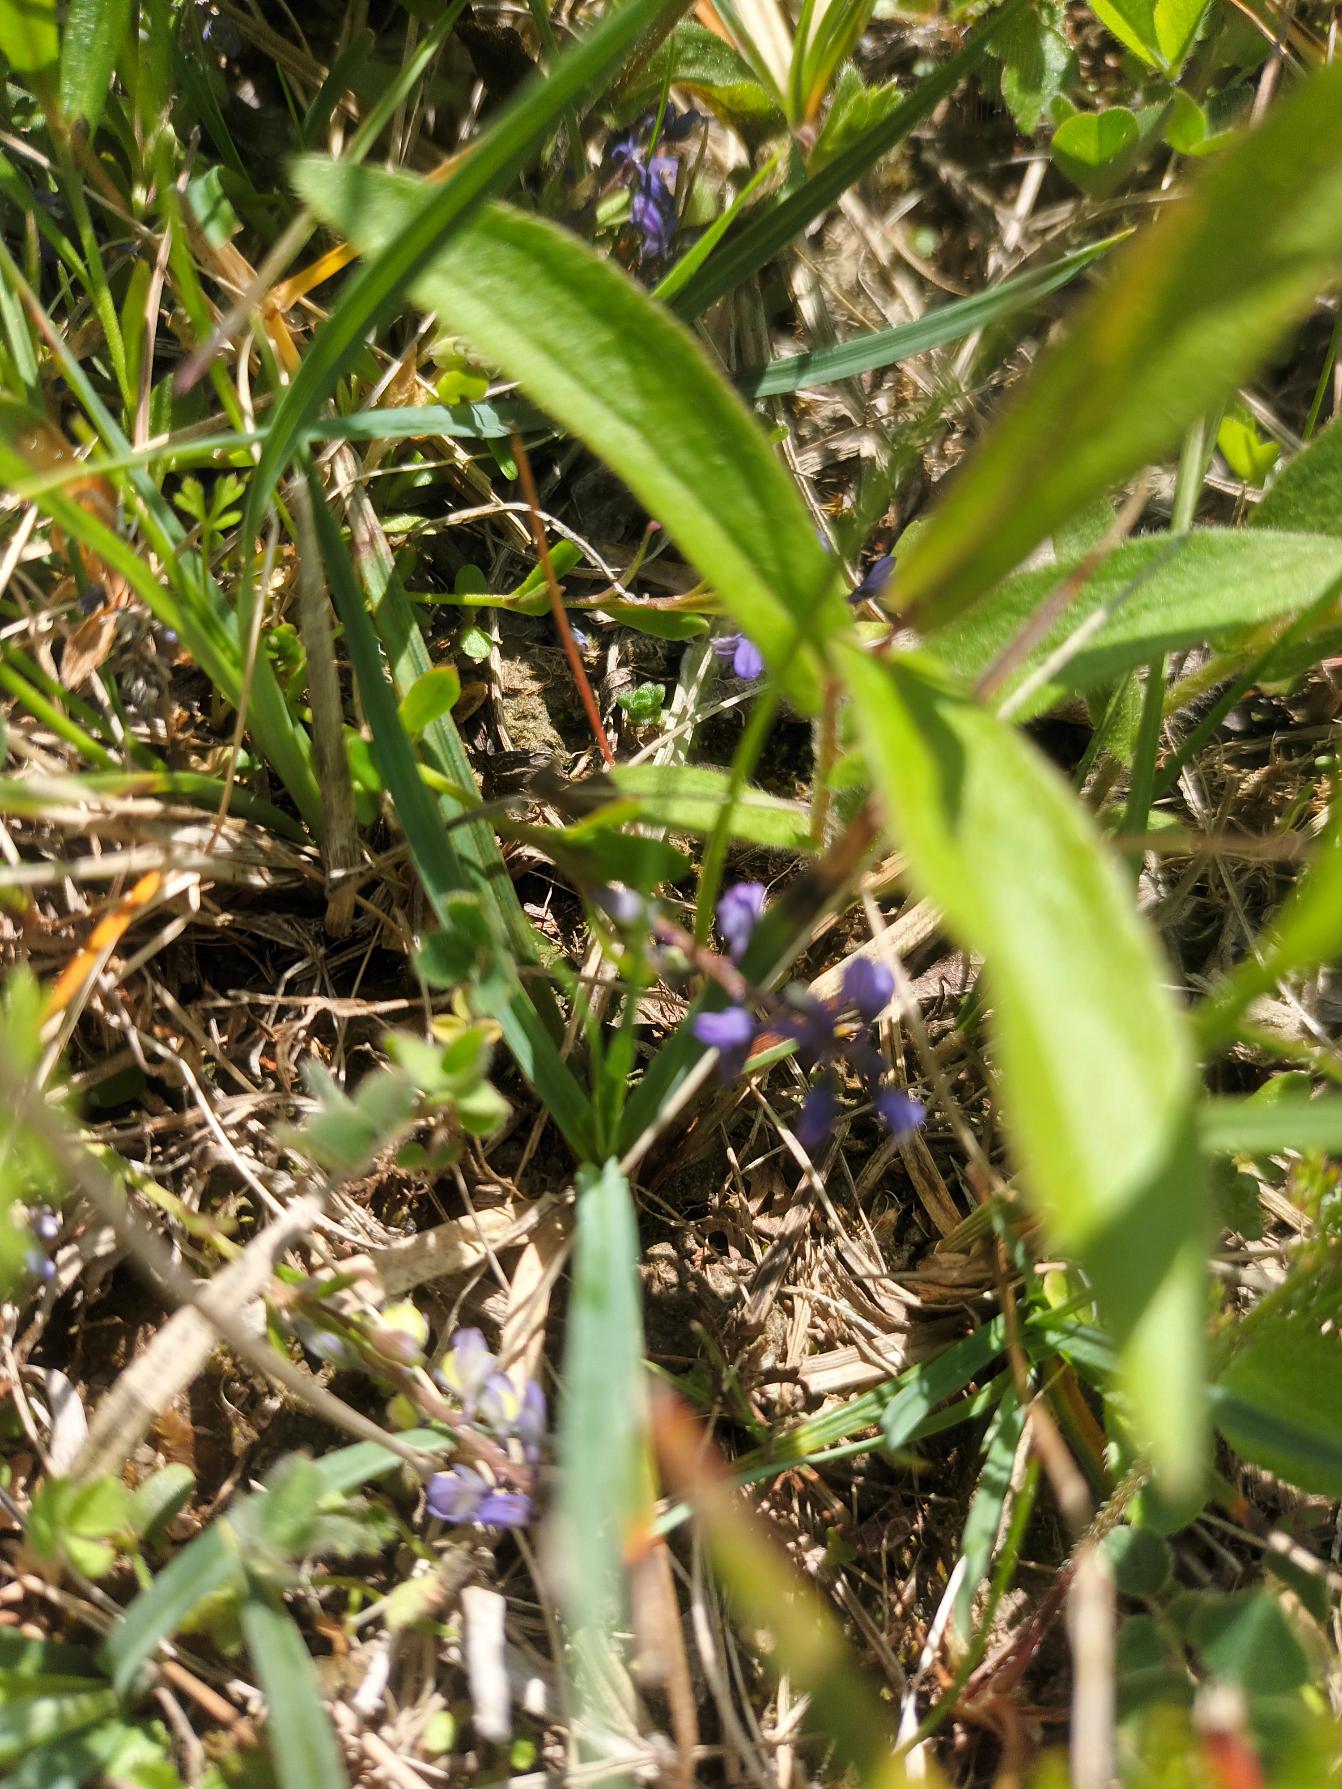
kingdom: Plantae
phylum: Tracheophyta
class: Magnoliopsida
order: Fabales
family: Polygalaceae
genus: Polygala
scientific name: Polygala amarella
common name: Bitter mælkeurt
